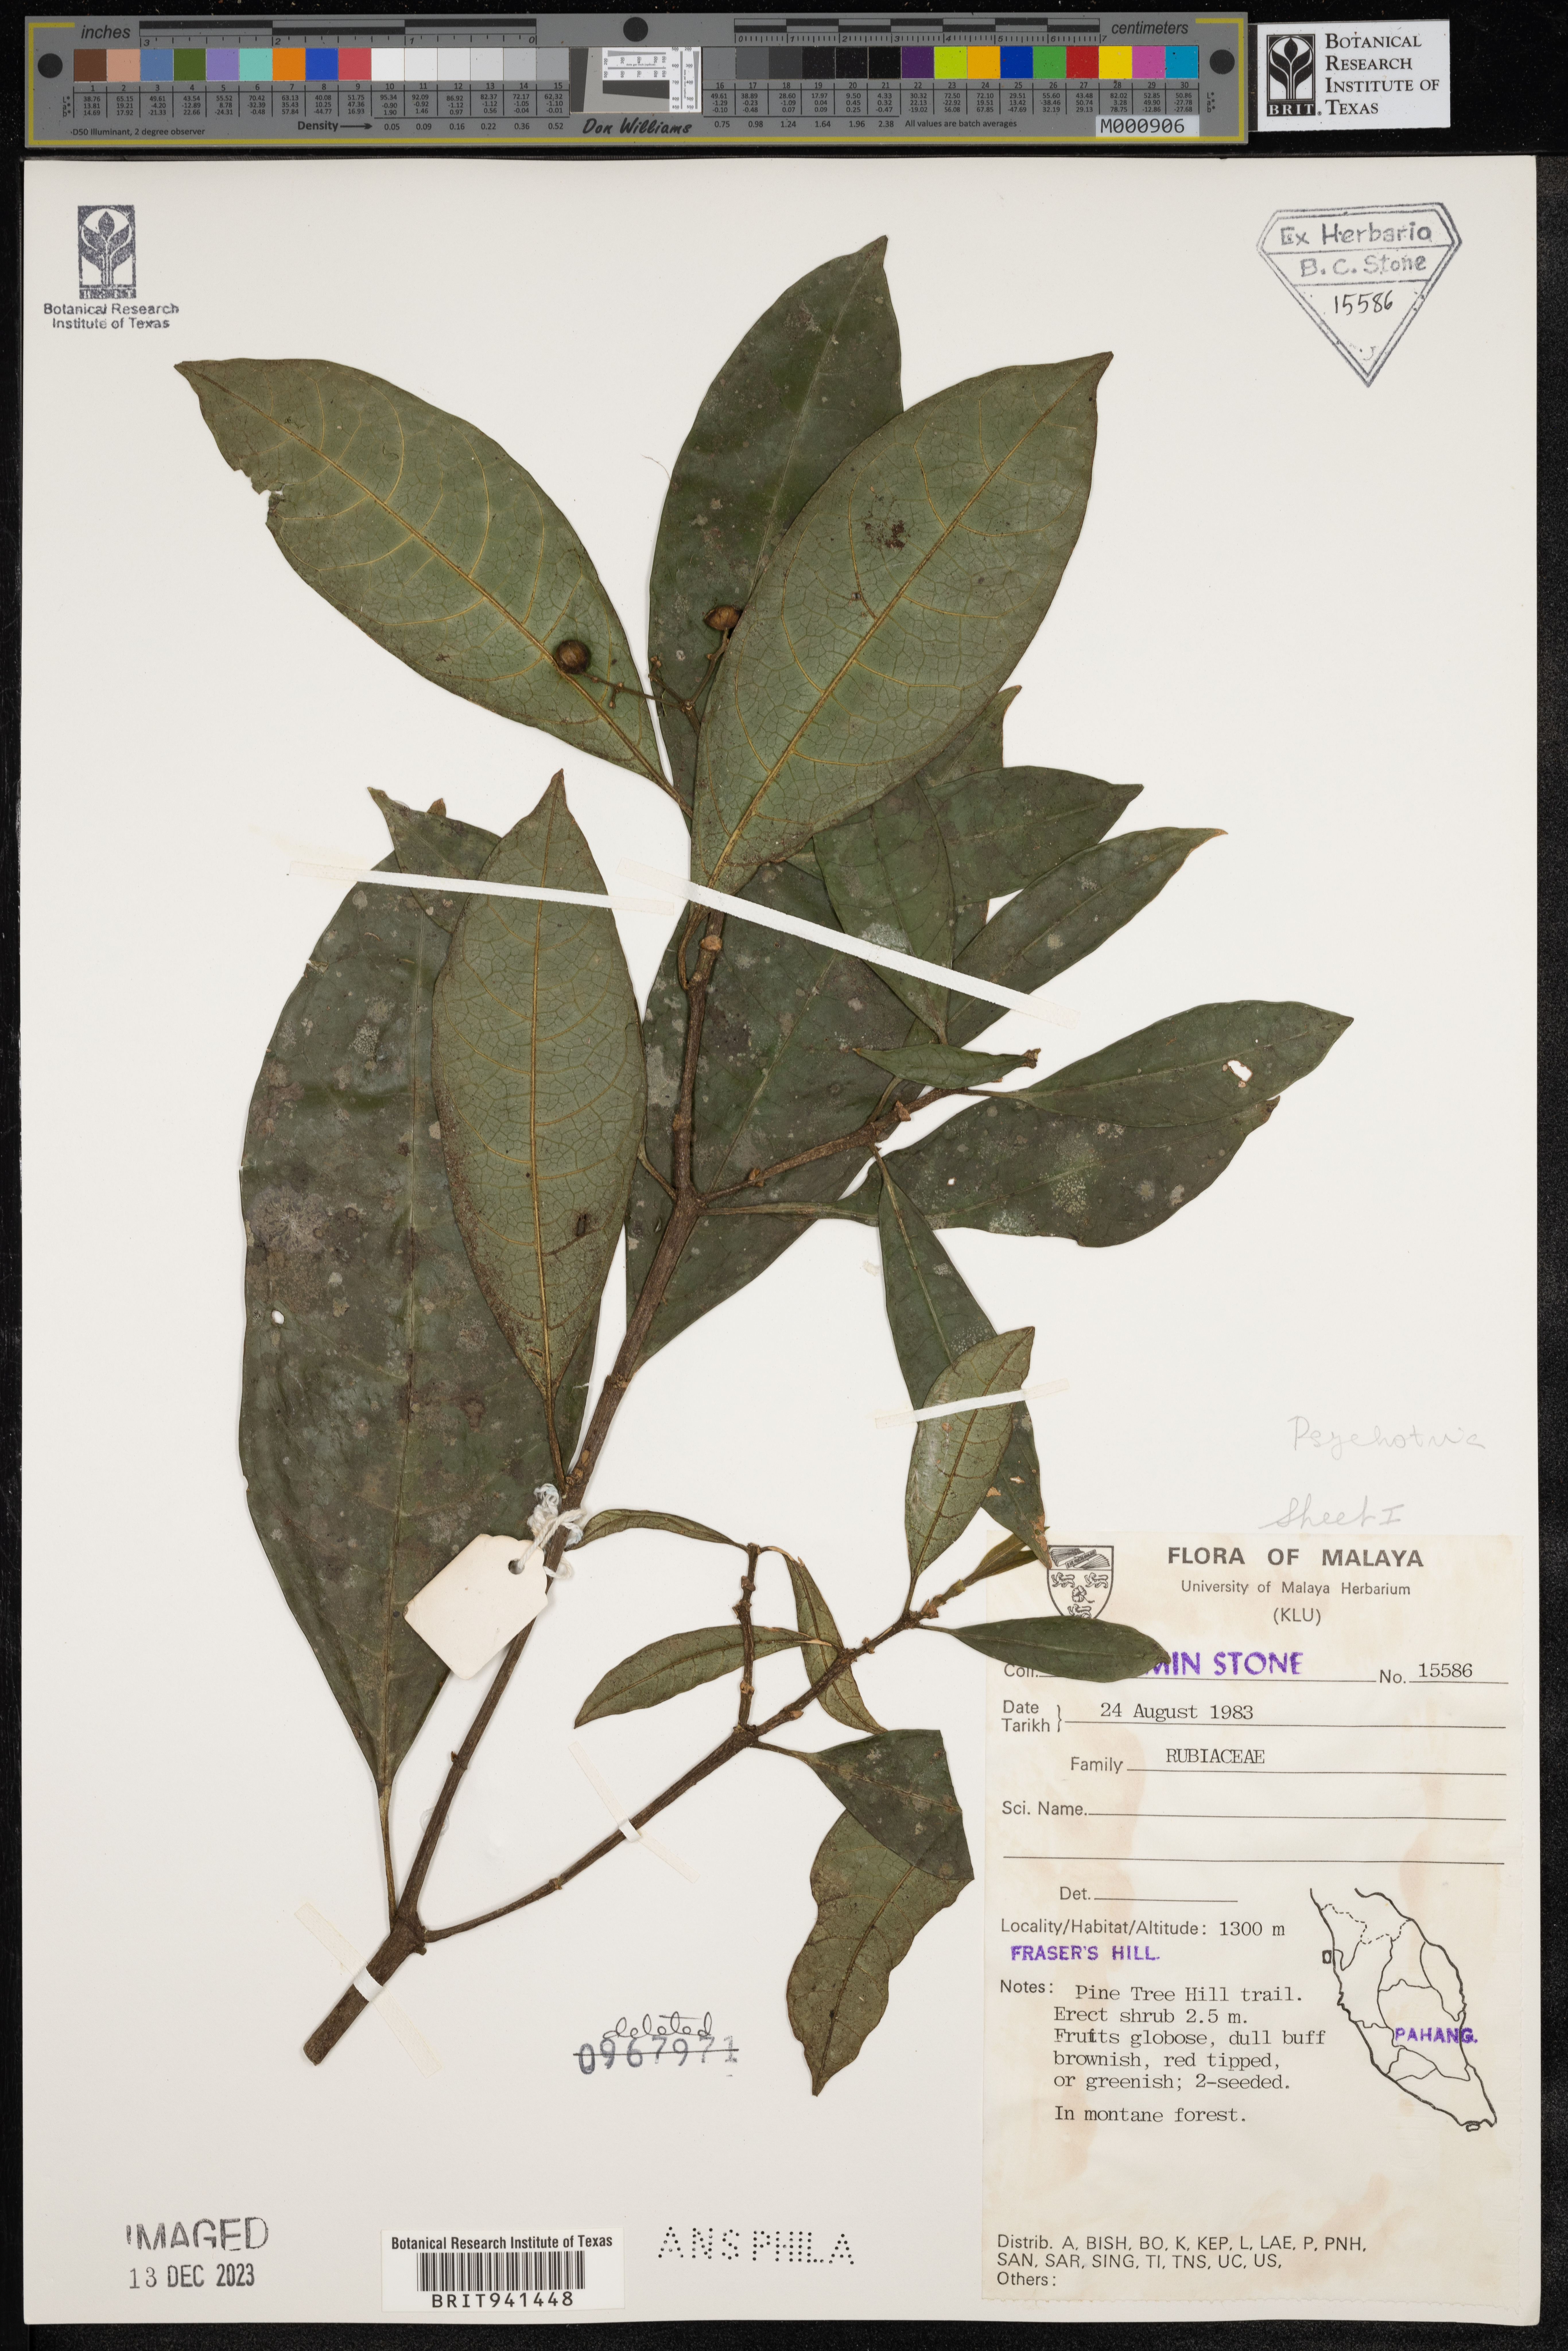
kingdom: Plantae
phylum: Tracheophyta
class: Magnoliopsida
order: Gentianales
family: Rubiaceae
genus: Psychotria
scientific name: Psychotria
